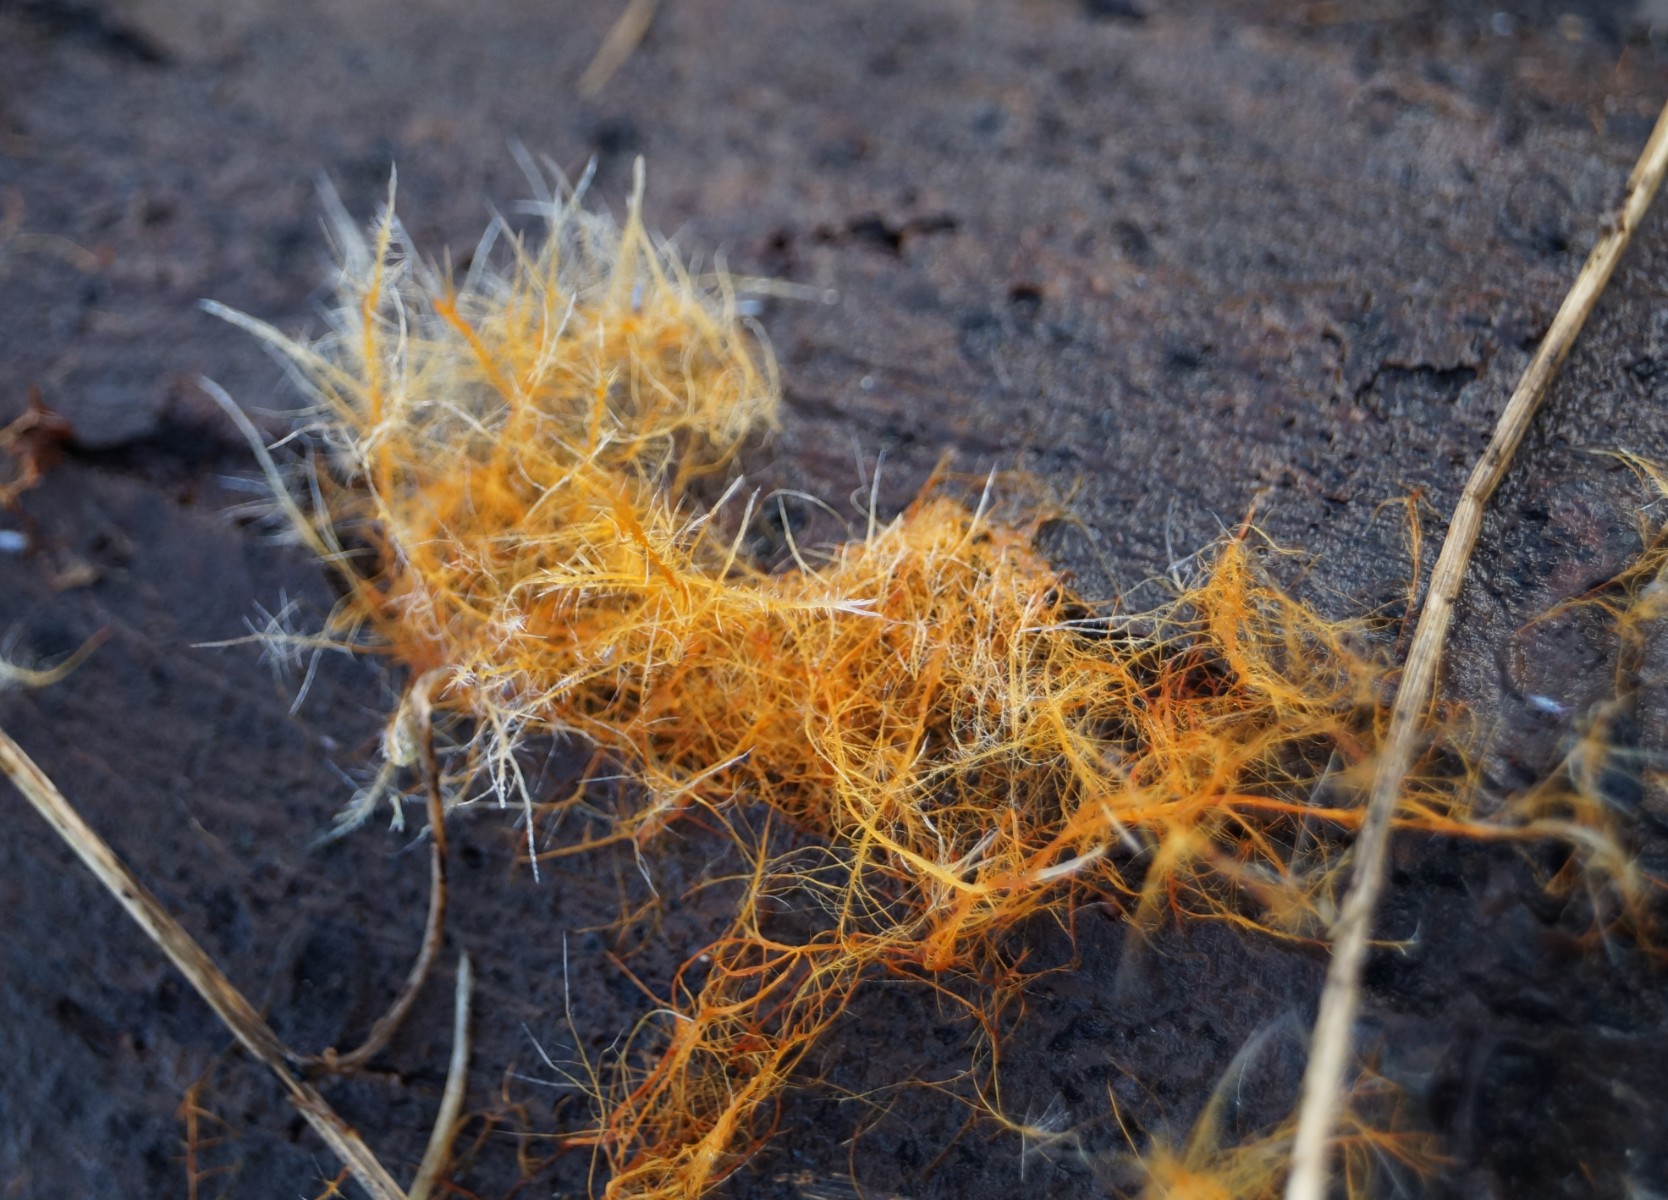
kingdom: Fungi
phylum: Basidiomycota
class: Agaricomycetes
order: Agaricales
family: Psathyrellaceae
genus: Ozonium
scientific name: Ozonium
